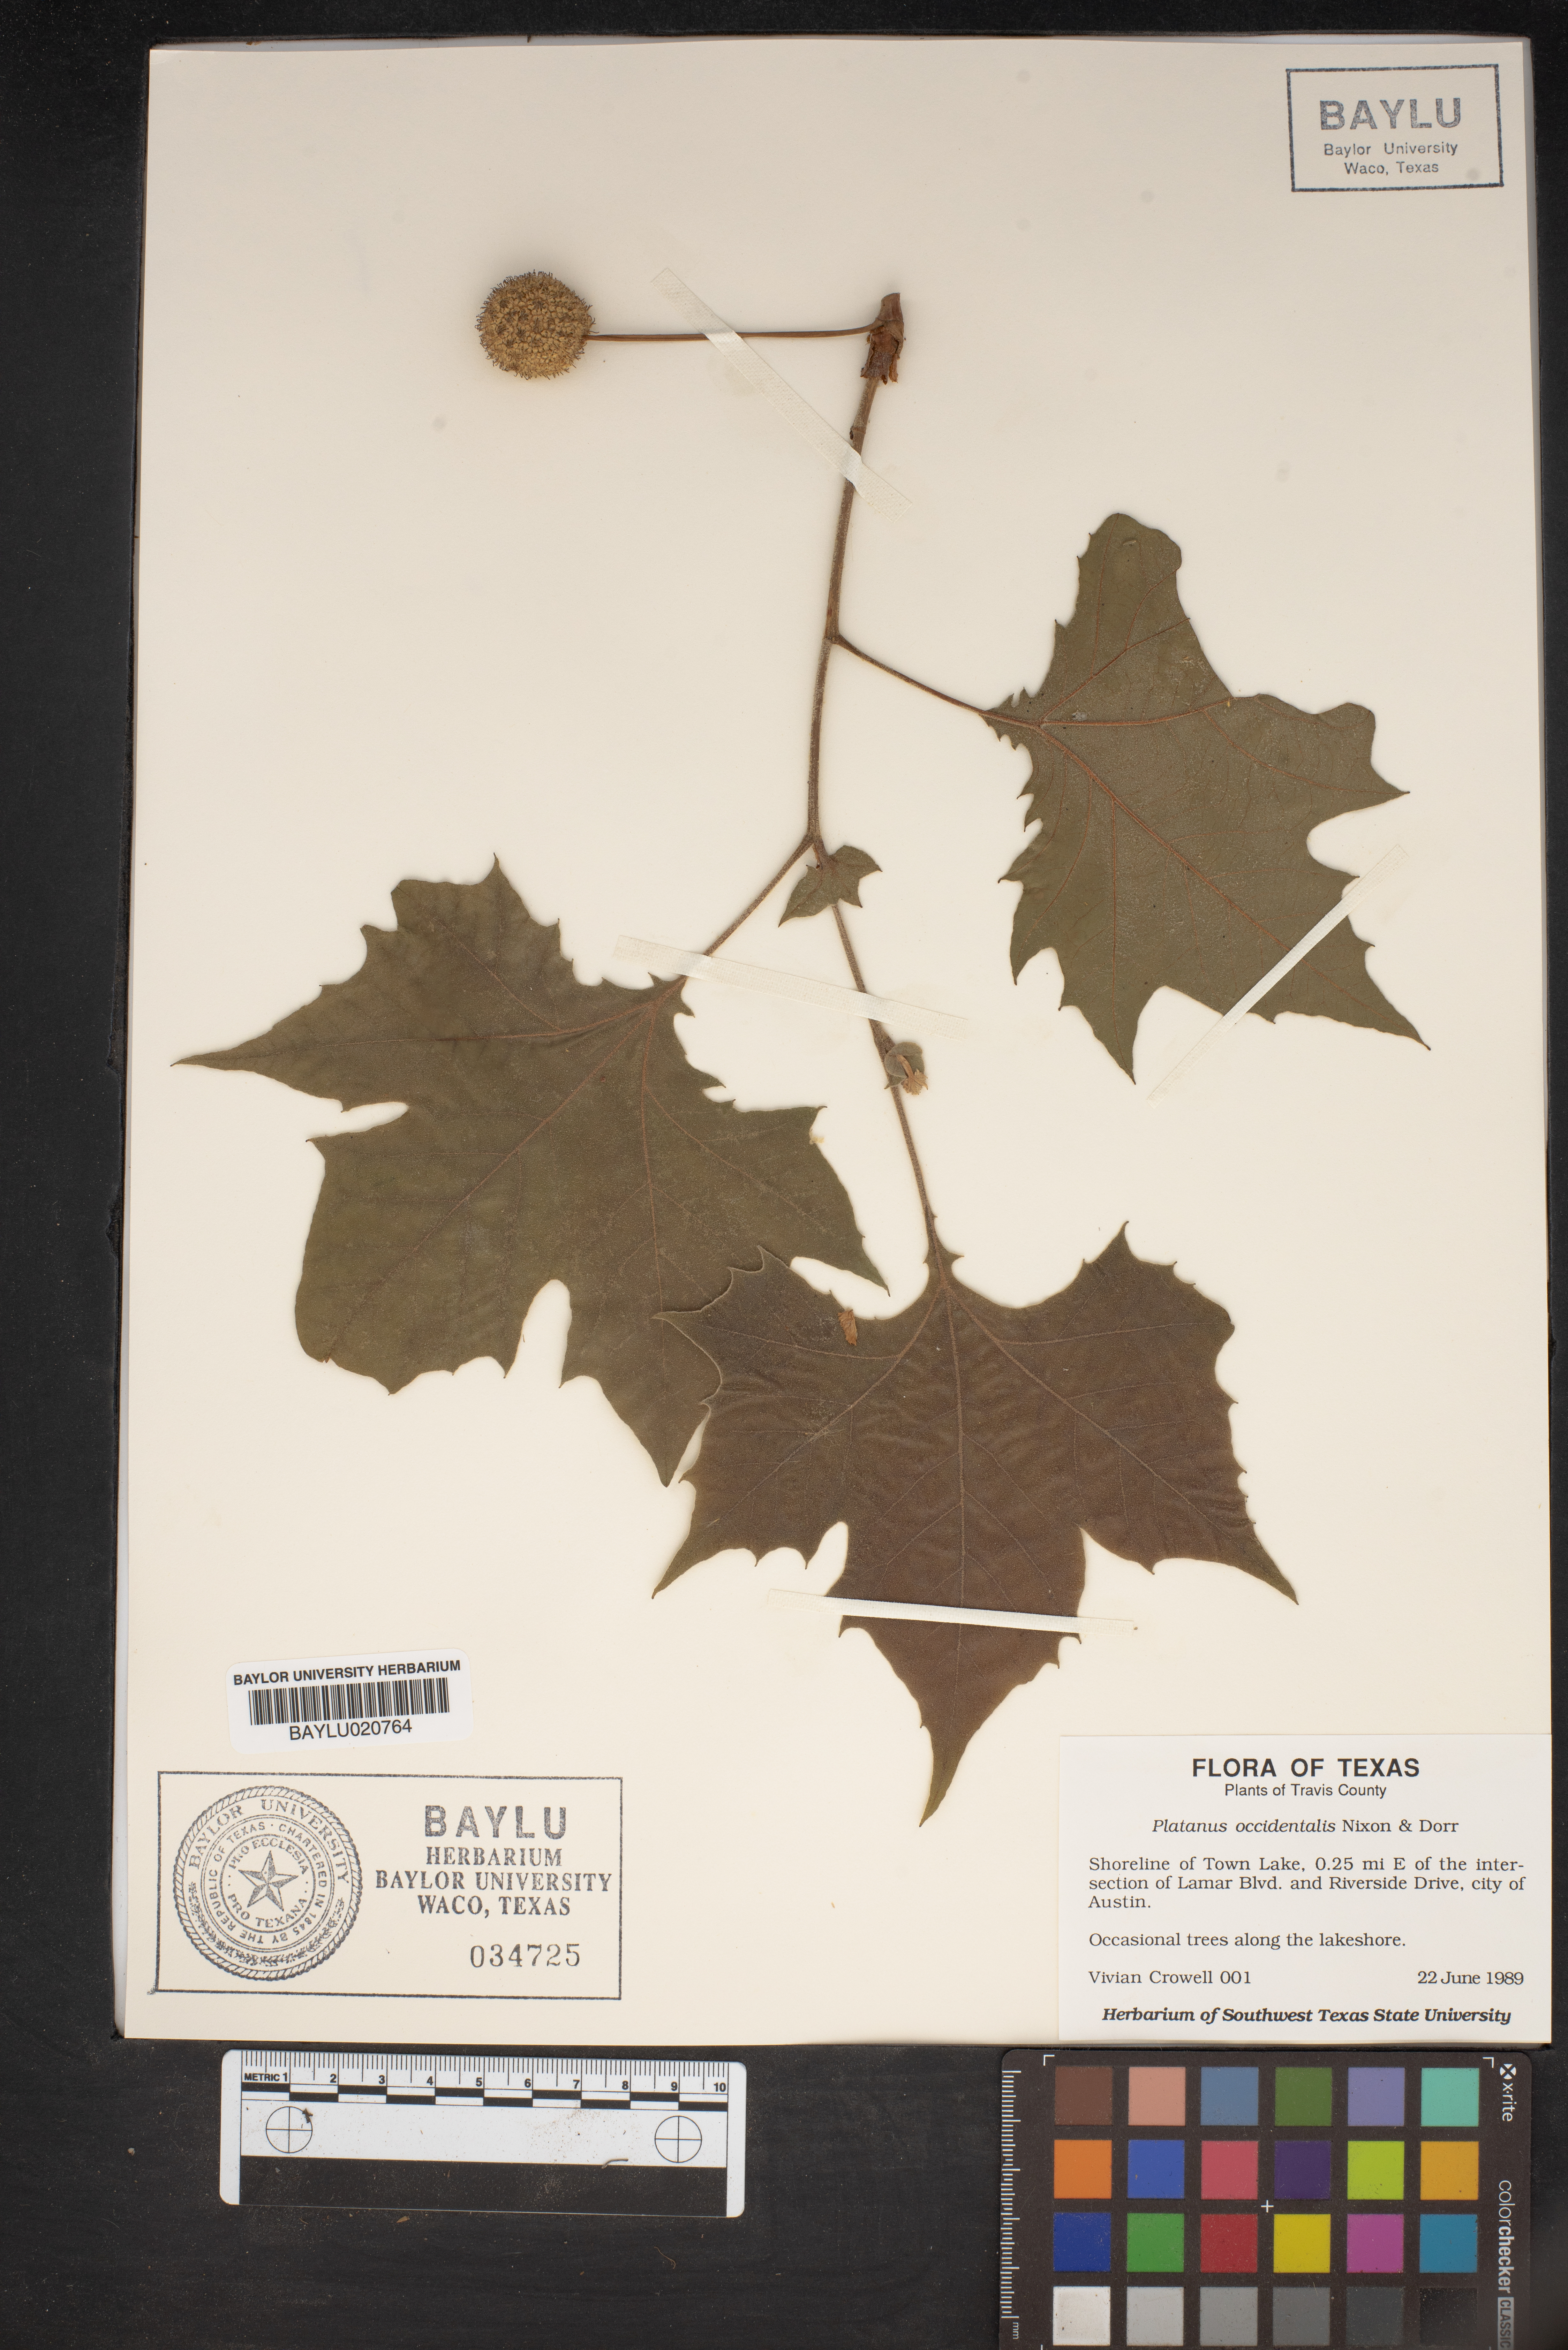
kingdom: Plantae
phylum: Tracheophyta
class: Magnoliopsida
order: Proteales
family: Platanaceae
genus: Platanus
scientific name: Platanus occidentalis
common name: American sycamore
